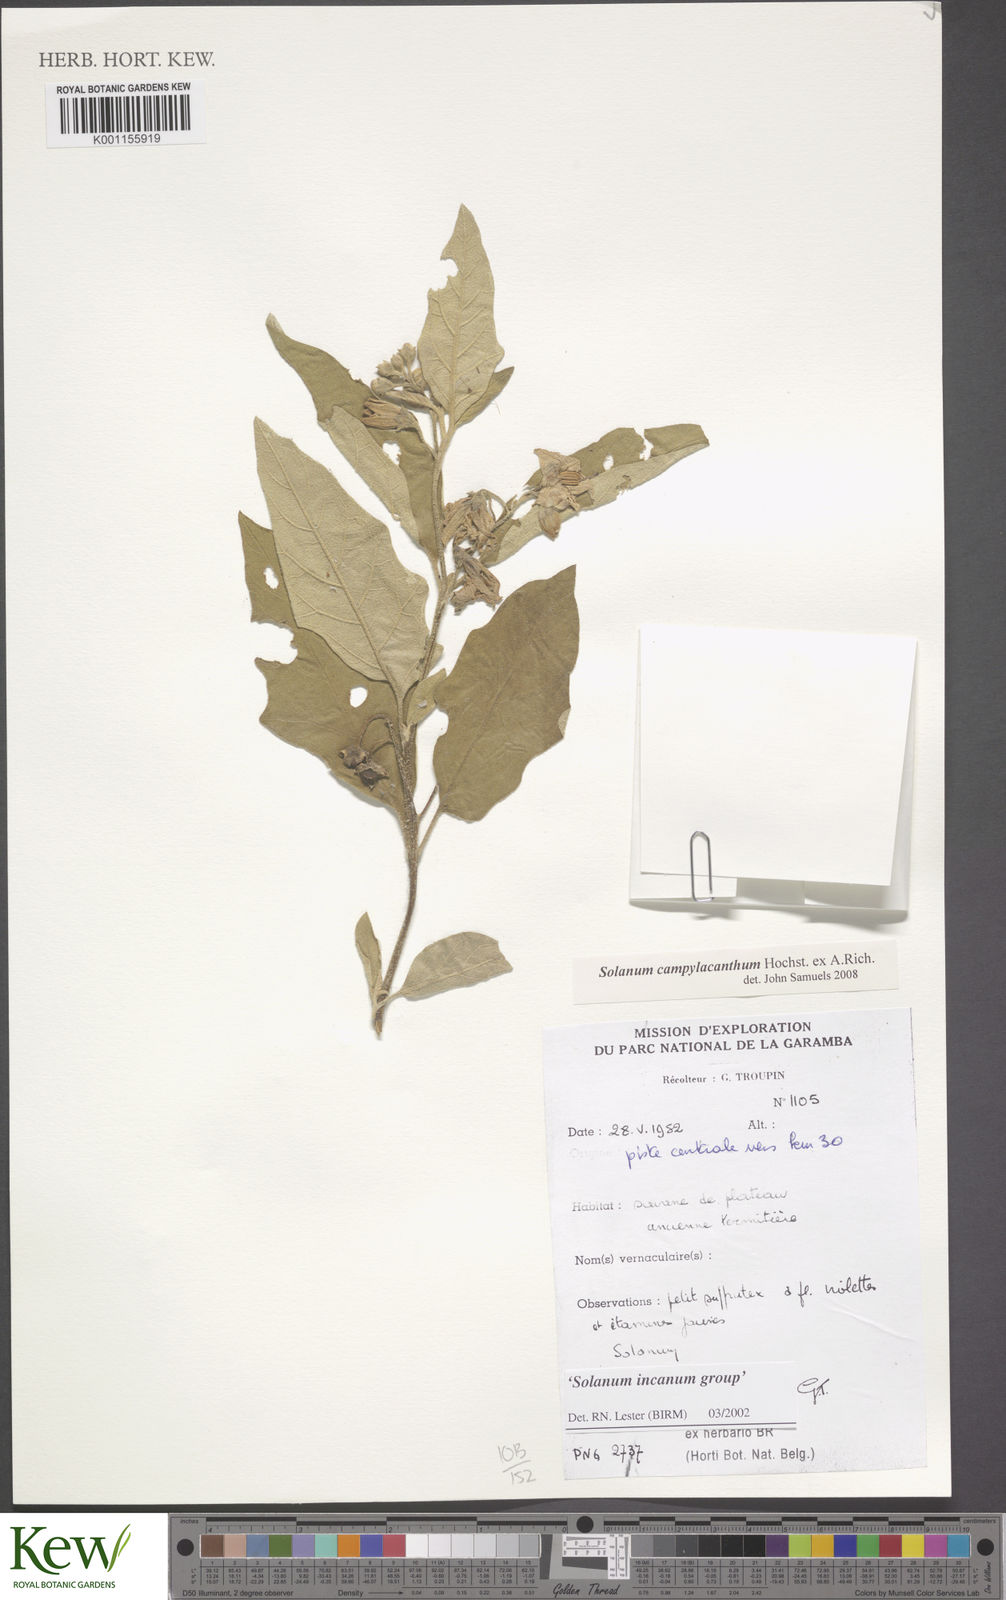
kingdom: Plantae
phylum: Tracheophyta
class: Magnoliopsida
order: Solanales
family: Solanaceae
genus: Solanum
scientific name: Solanum campylacanthum
